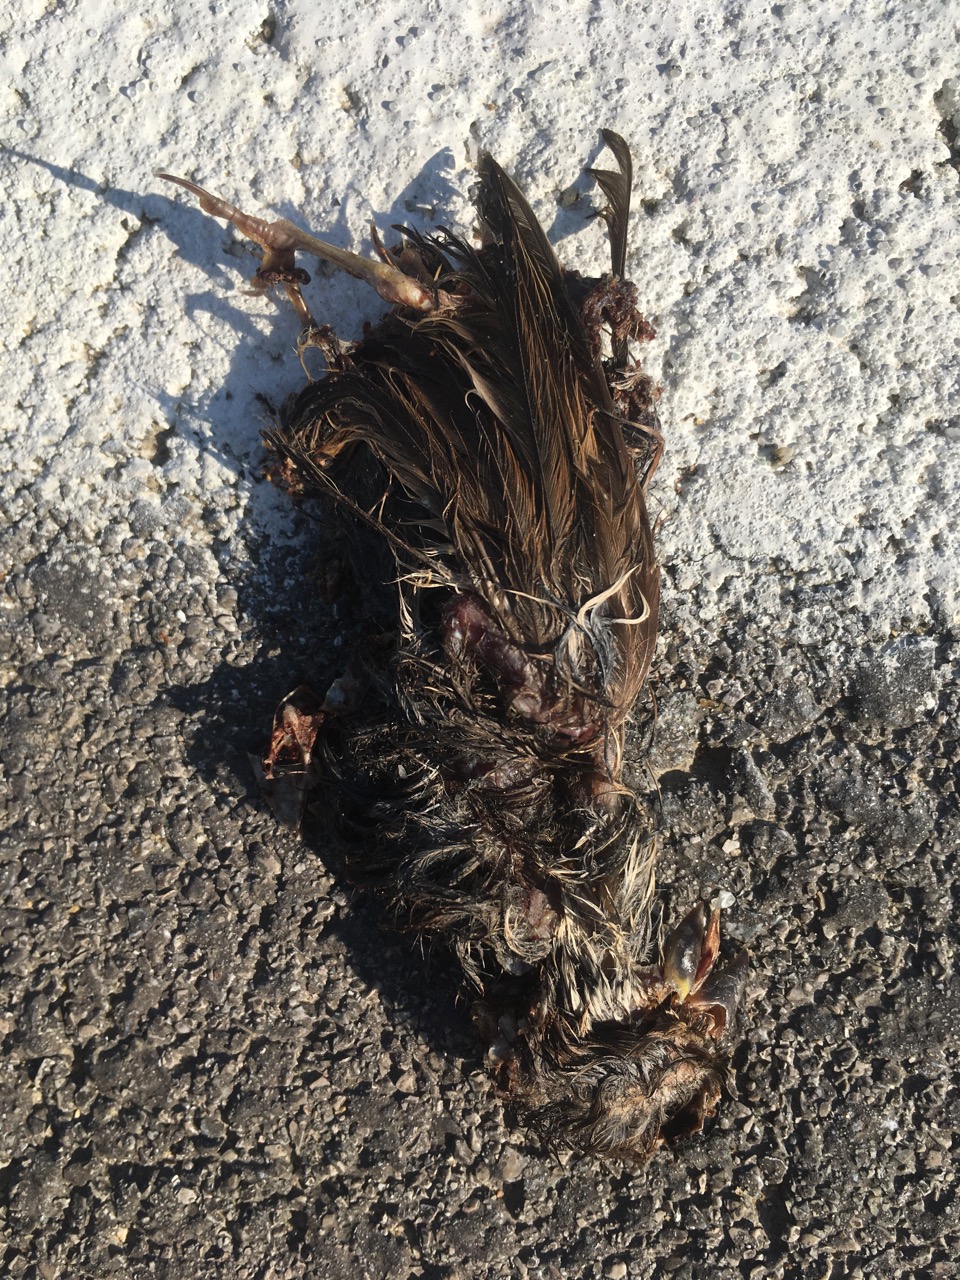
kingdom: Animalia
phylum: Chordata
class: Aves
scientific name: Aves
